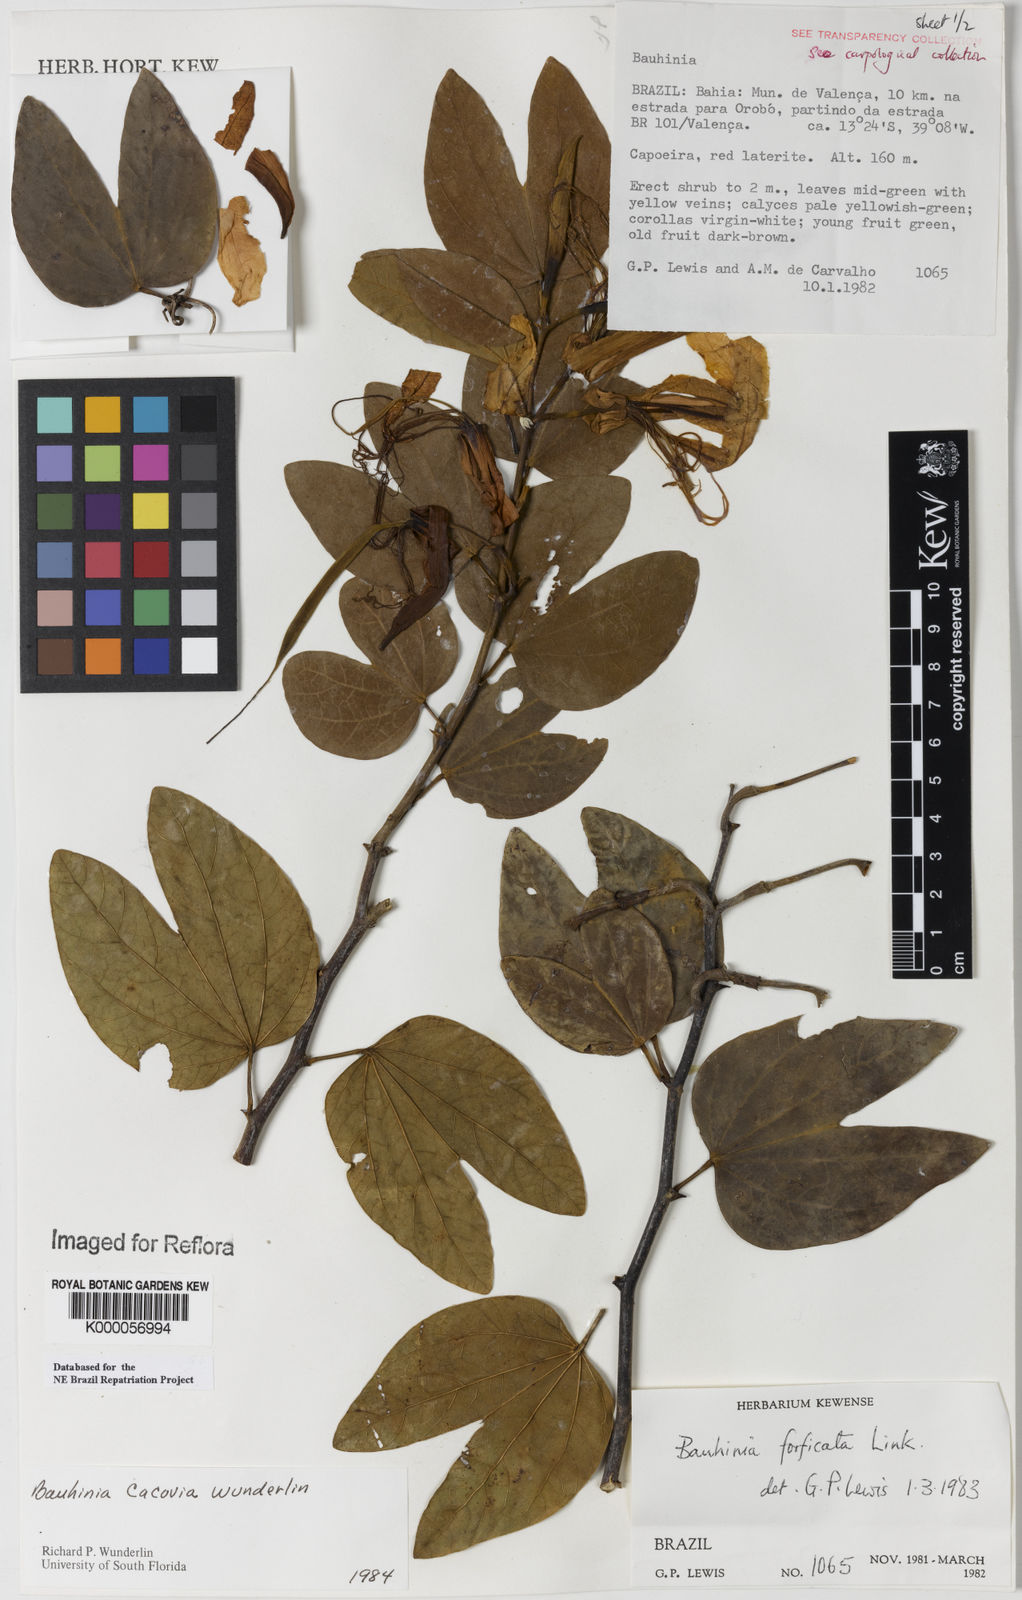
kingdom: Plantae
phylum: Tracheophyta
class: Magnoliopsida
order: Fabales
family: Fabaceae
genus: Bauhinia
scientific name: Bauhinia
